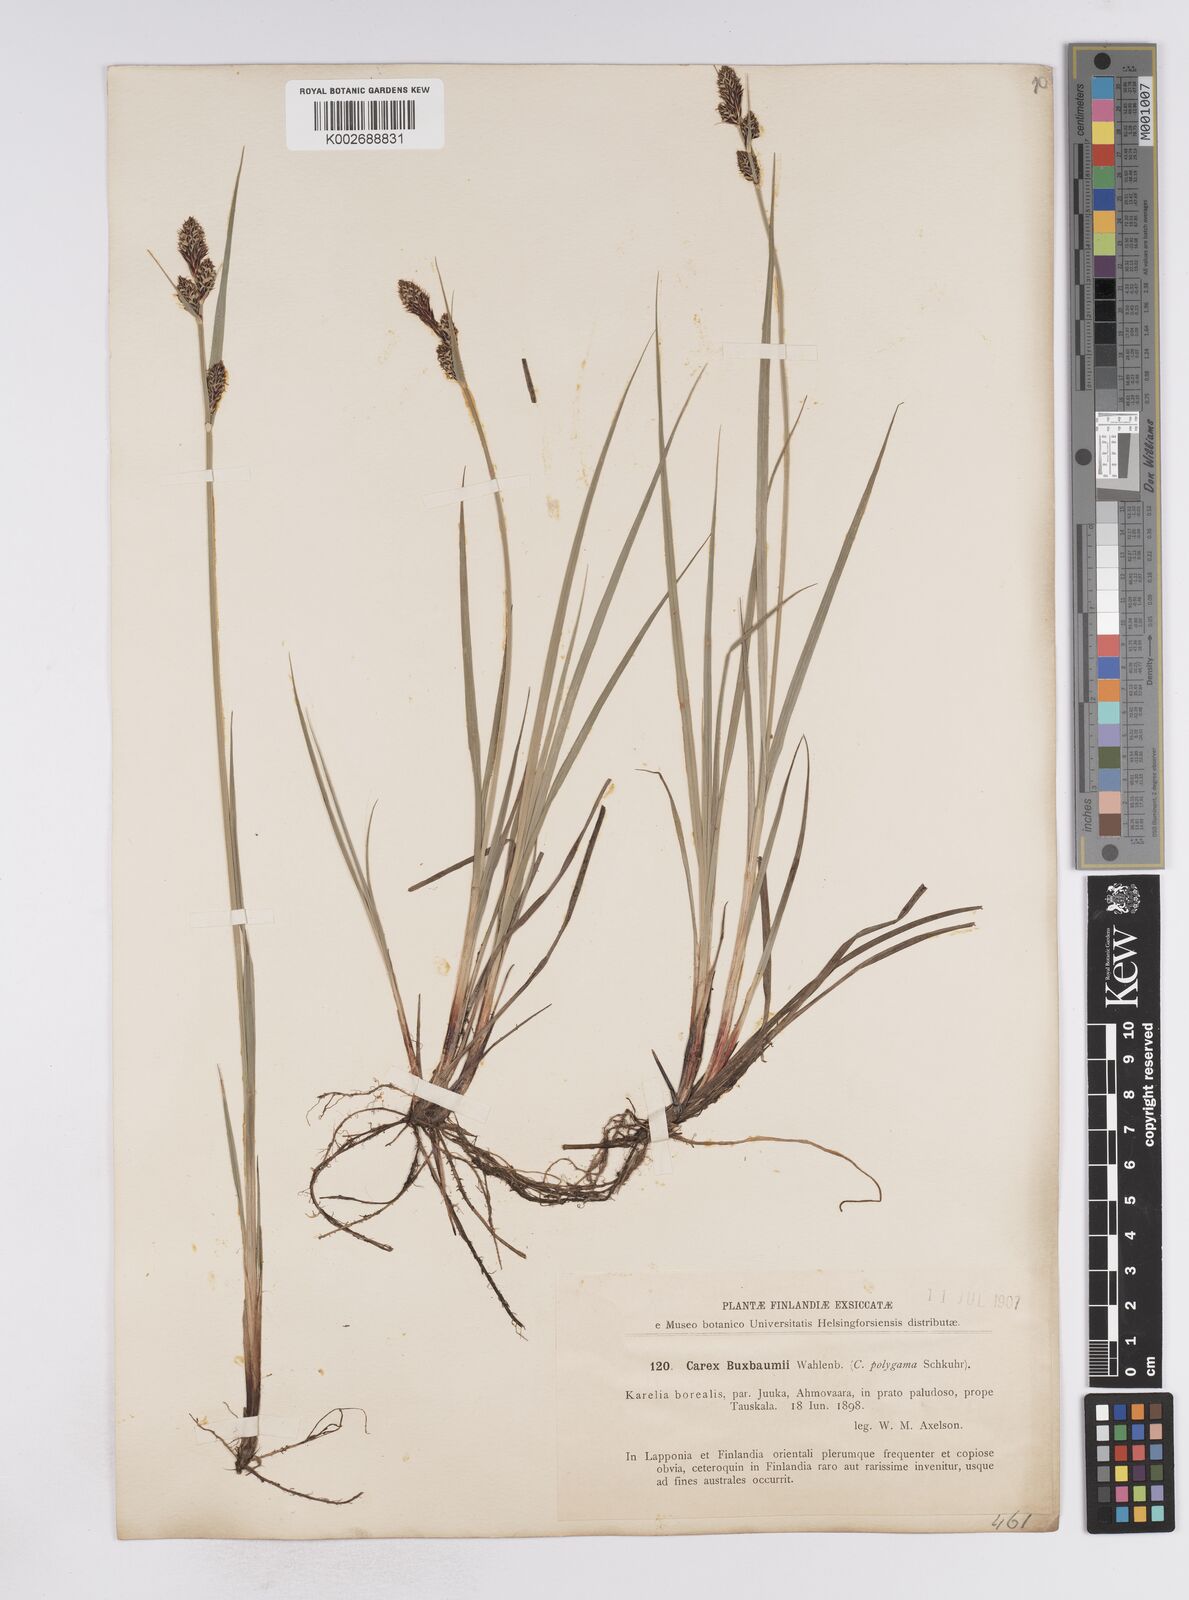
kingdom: Plantae
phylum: Tracheophyta
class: Liliopsida
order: Poales
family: Cyperaceae
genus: Carex
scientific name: Carex buxbaumii
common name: Club sedge
